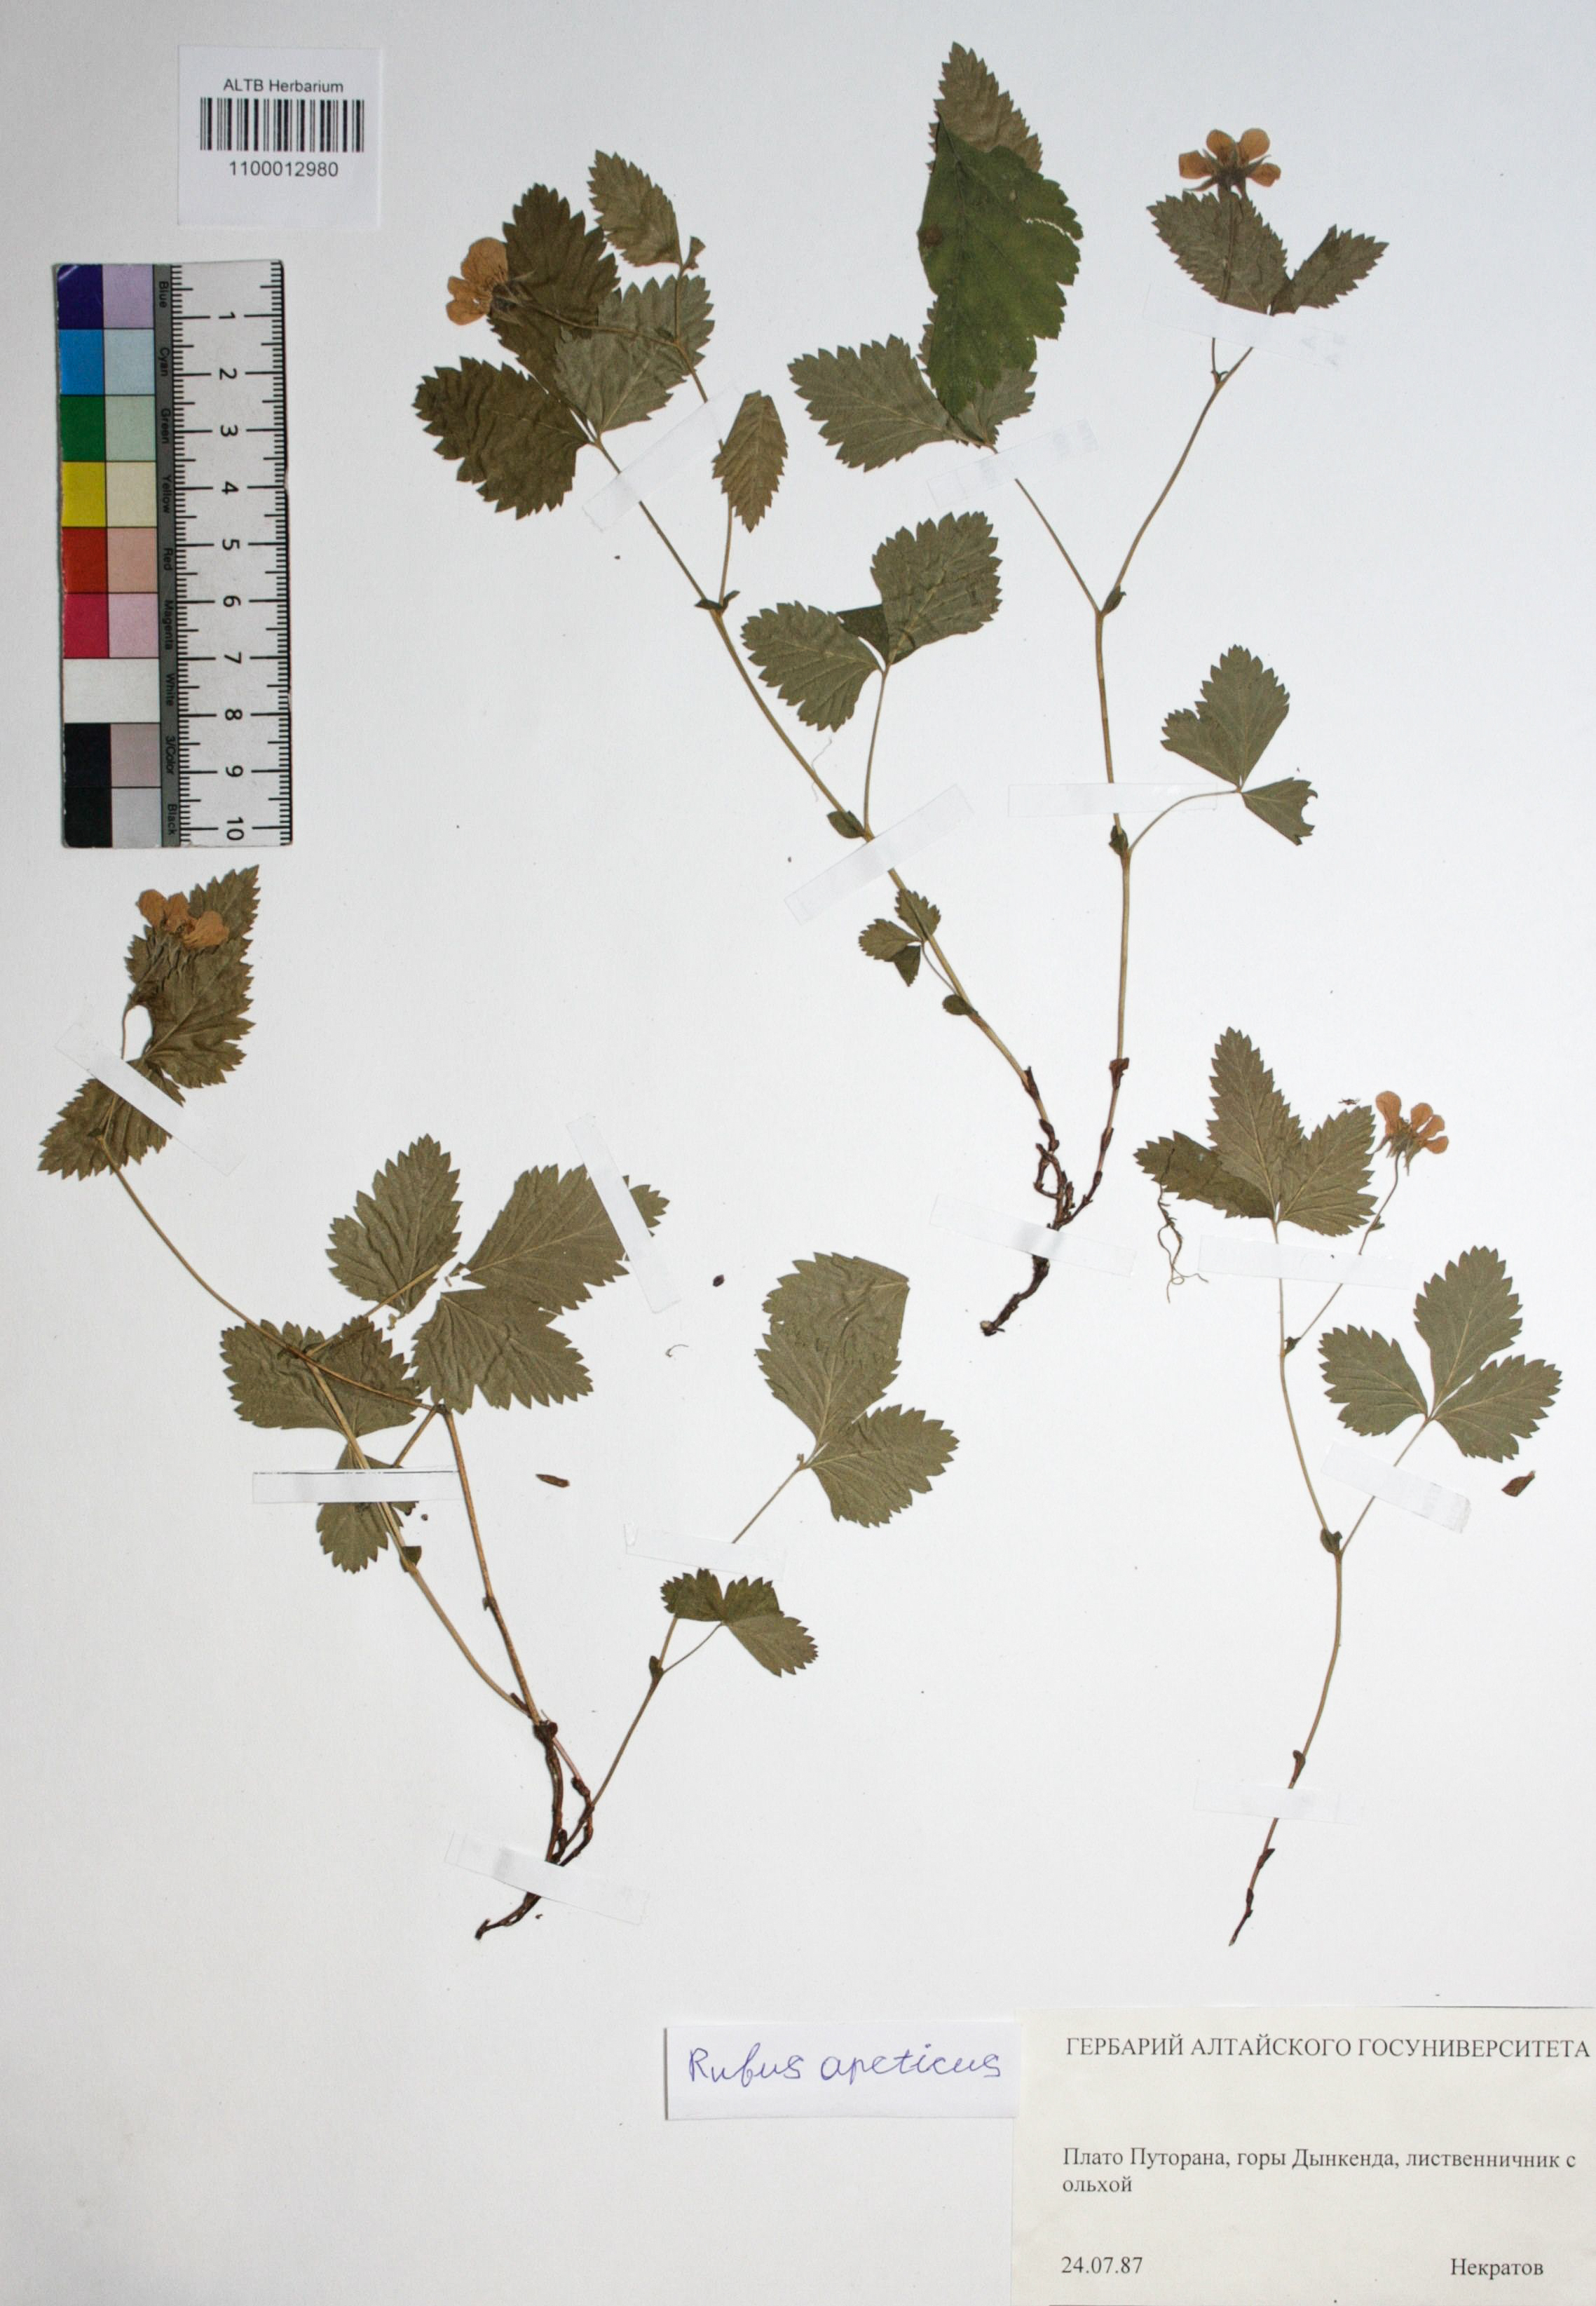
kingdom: Plantae
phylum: Tracheophyta
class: Magnoliopsida
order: Rosales
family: Rosaceae
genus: Rubus
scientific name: Rubus arcticus
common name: Arctic bramble
